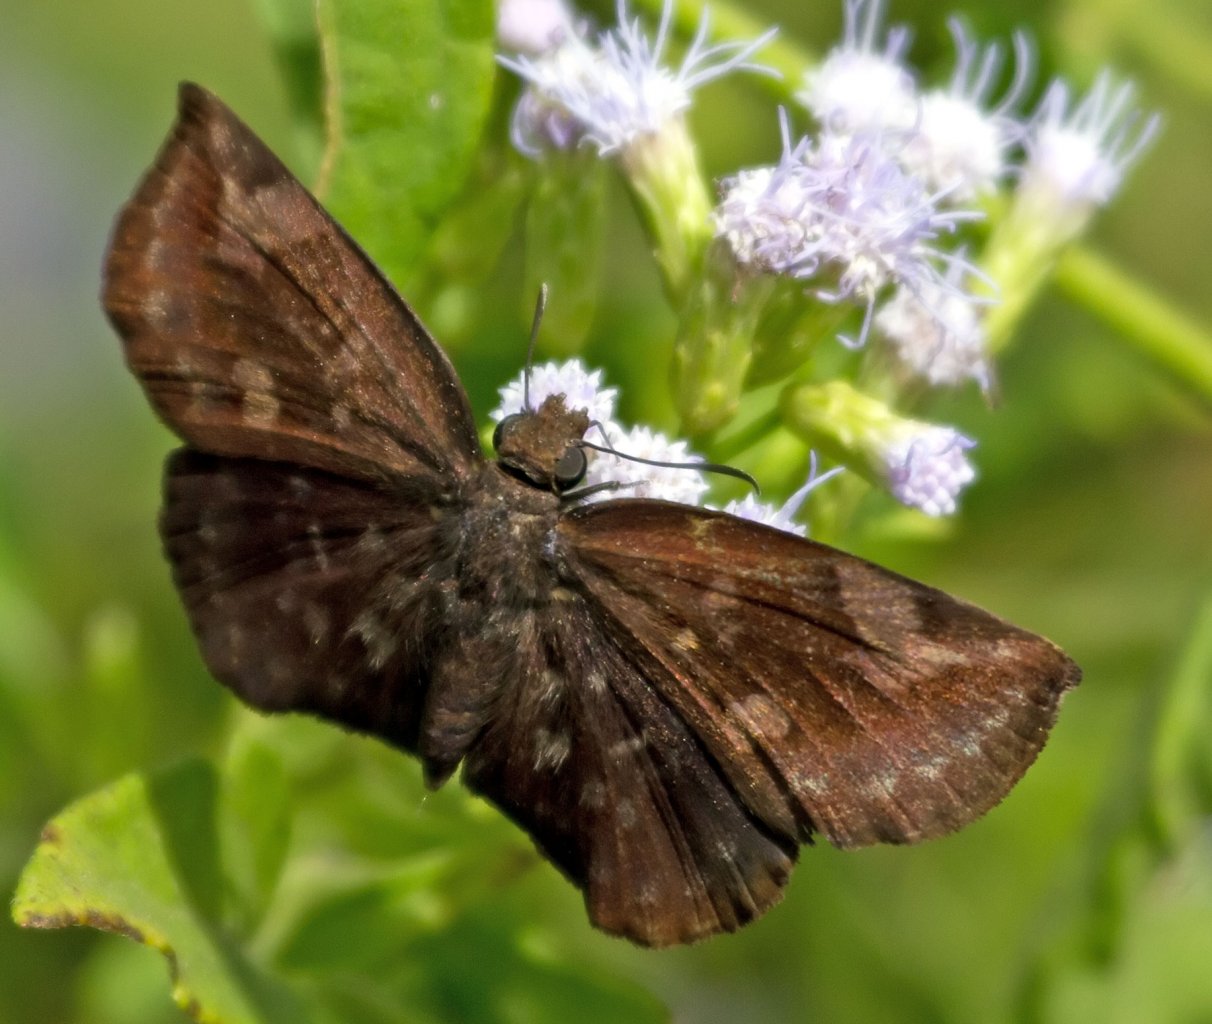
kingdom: Animalia
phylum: Arthropoda
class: Insecta
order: Lepidoptera
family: Hesperiidae
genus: Achlyodes
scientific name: Achlyodes thraso
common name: Sickle-winged Skipper
